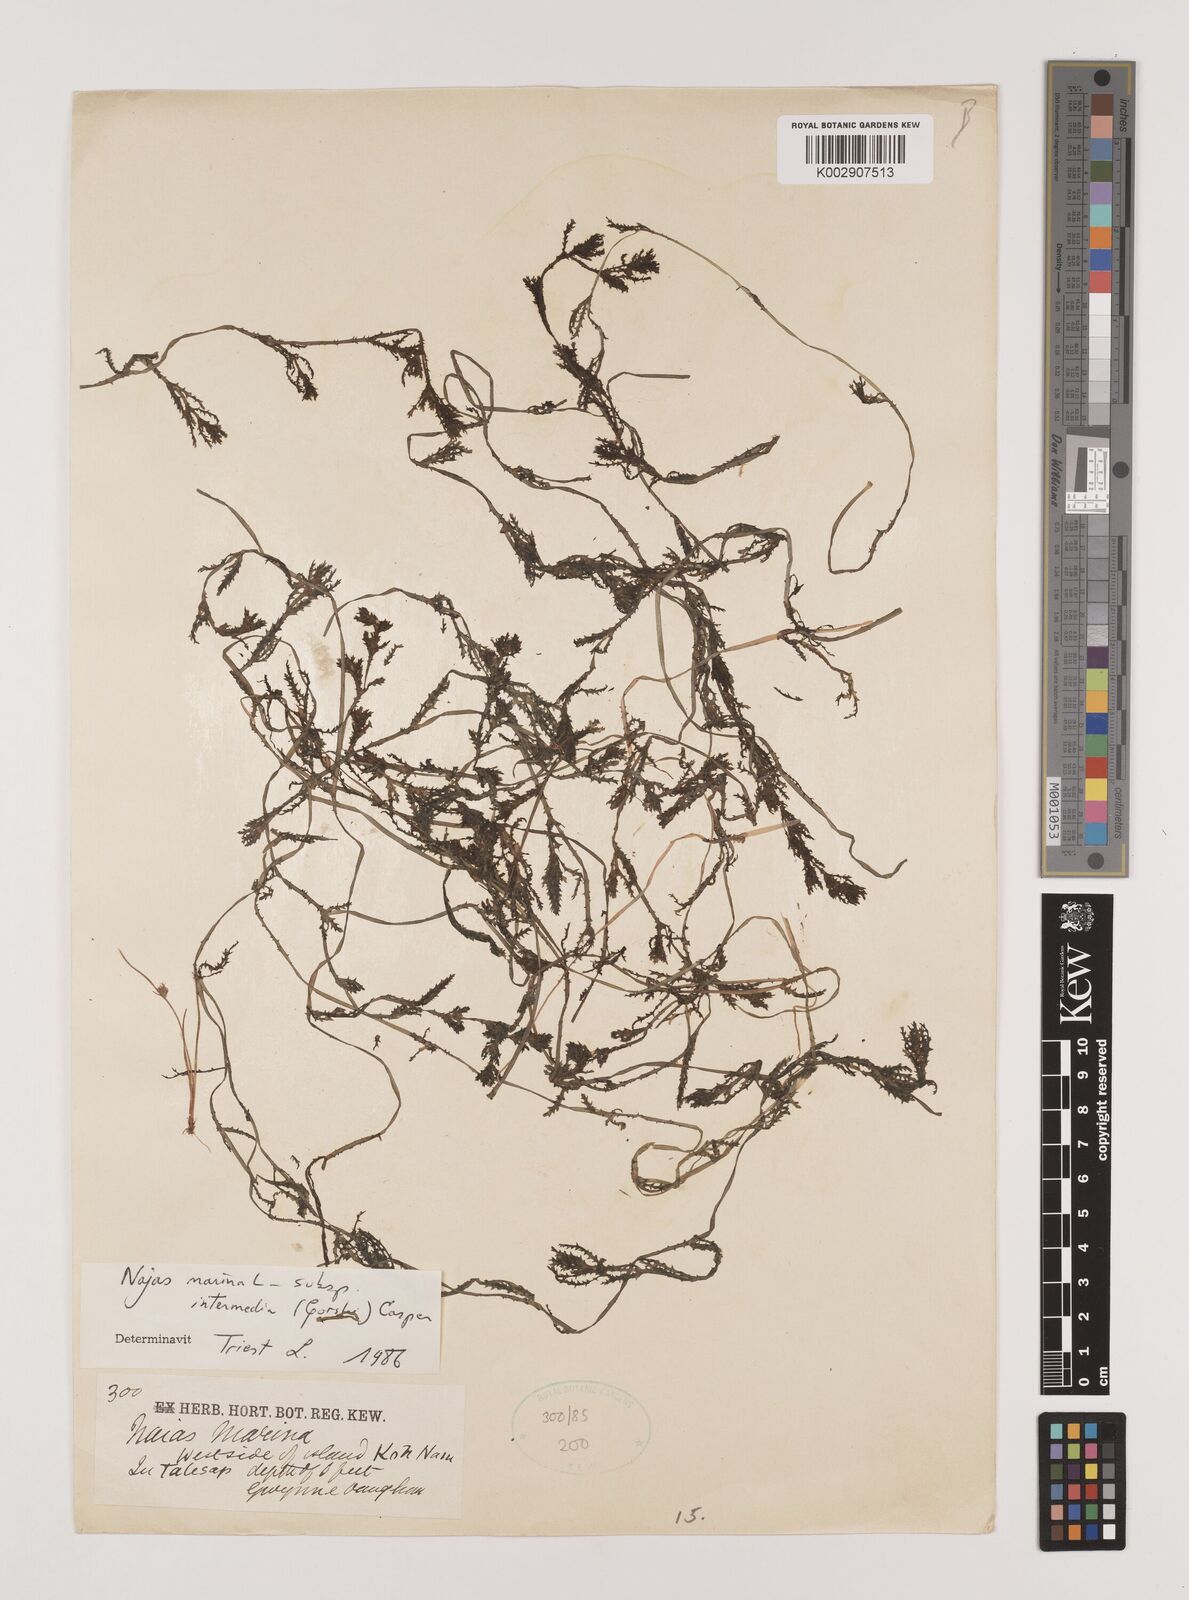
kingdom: Plantae
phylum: Tracheophyta
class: Liliopsida
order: Alismatales
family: Hydrocharitaceae
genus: Najas
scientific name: Najas marina
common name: Holly-leaved naiad
